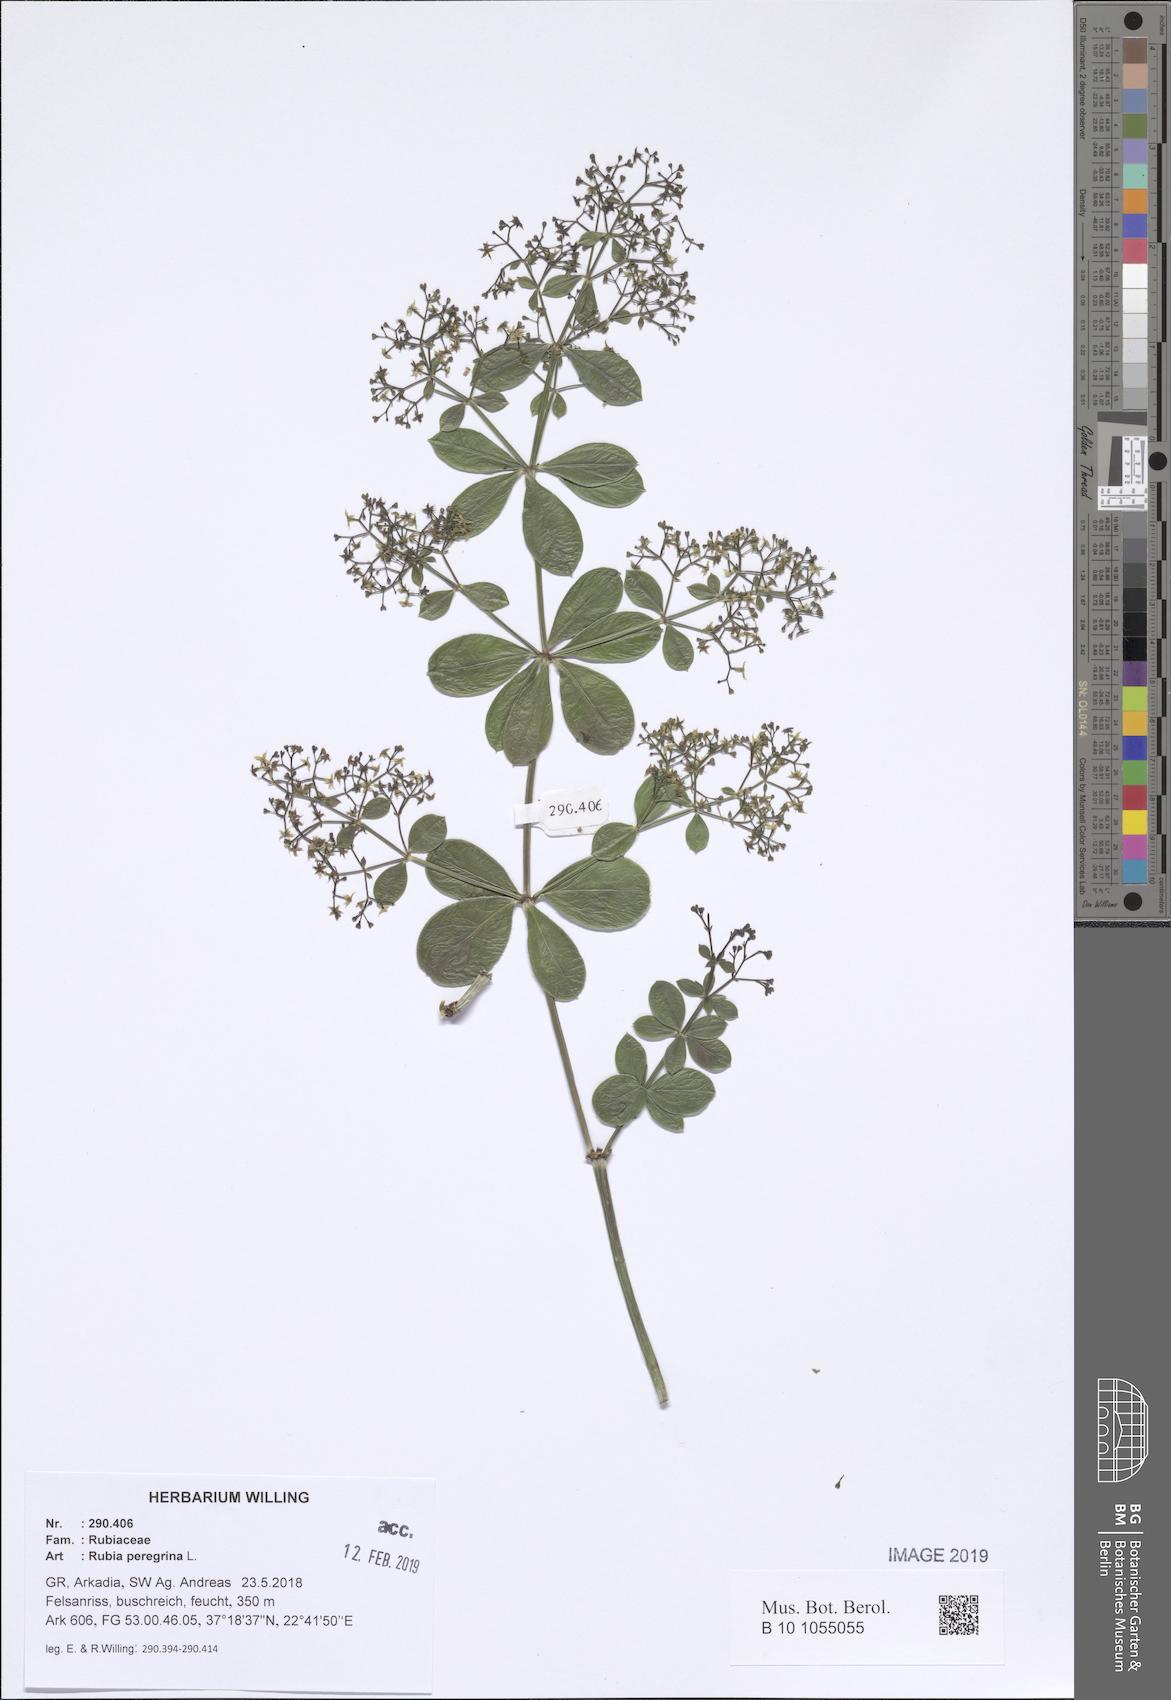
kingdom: Plantae
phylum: Tracheophyta
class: Magnoliopsida
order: Gentianales
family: Rubiaceae
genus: Rubia
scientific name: Rubia peregrina
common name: Wild madder
